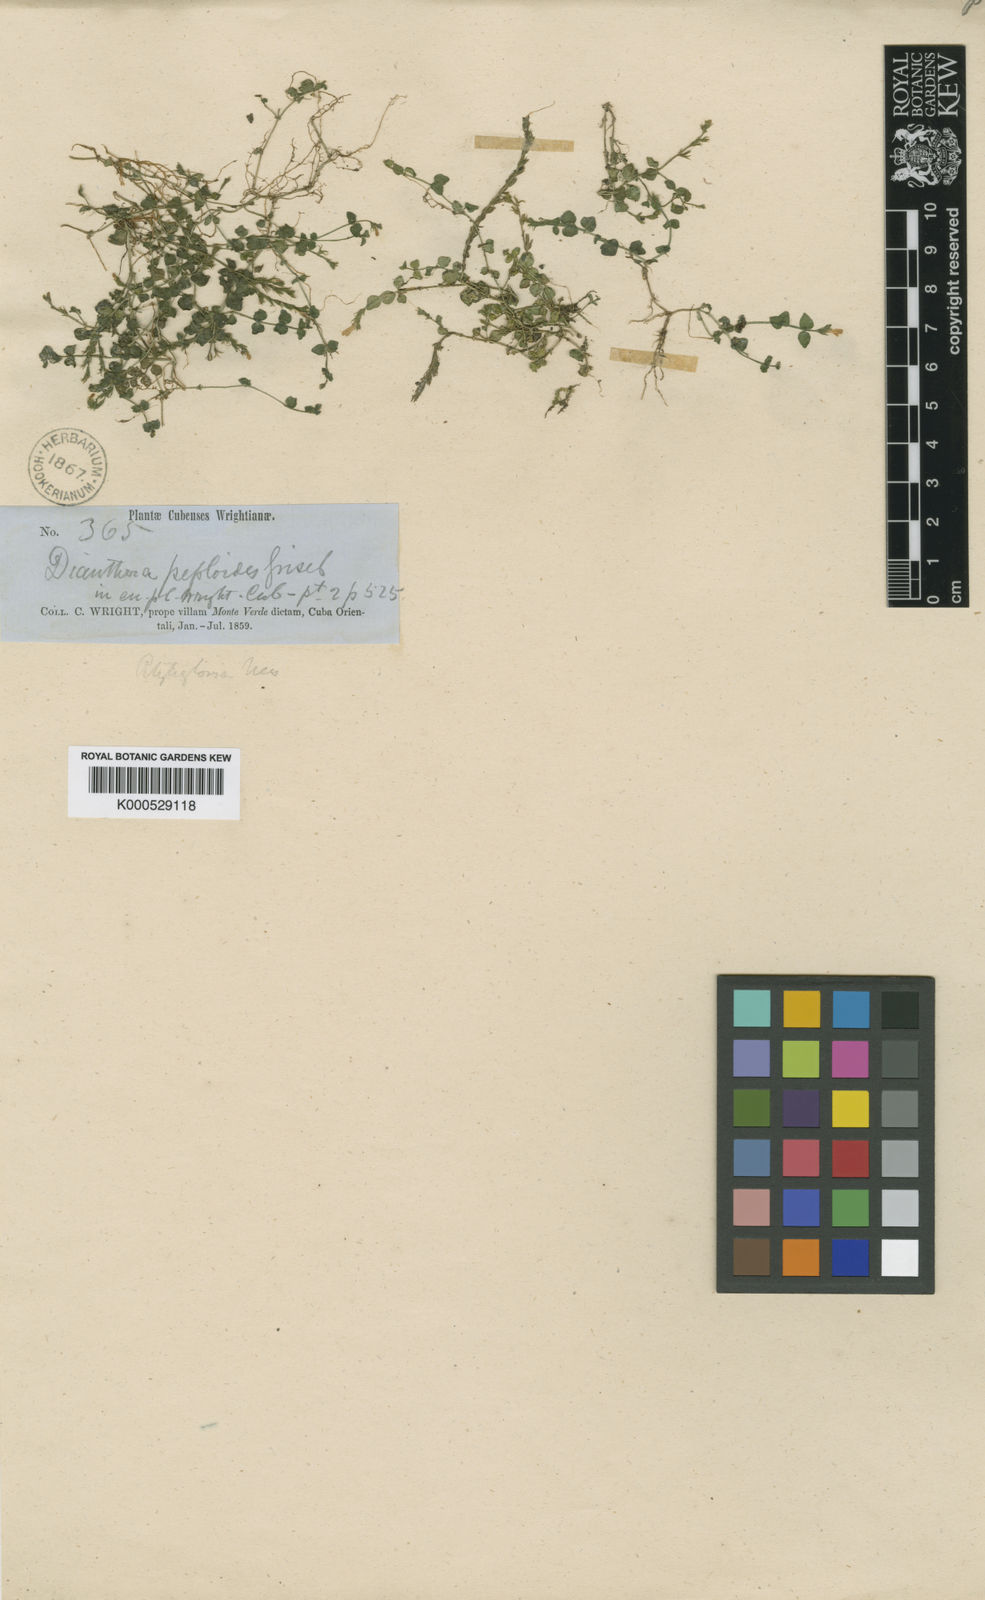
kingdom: Plantae
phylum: Tracheophyta
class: Magnoliopsida
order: Lamiales
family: Acanthaceae
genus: Rostellularia
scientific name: Rostellularia peploides
